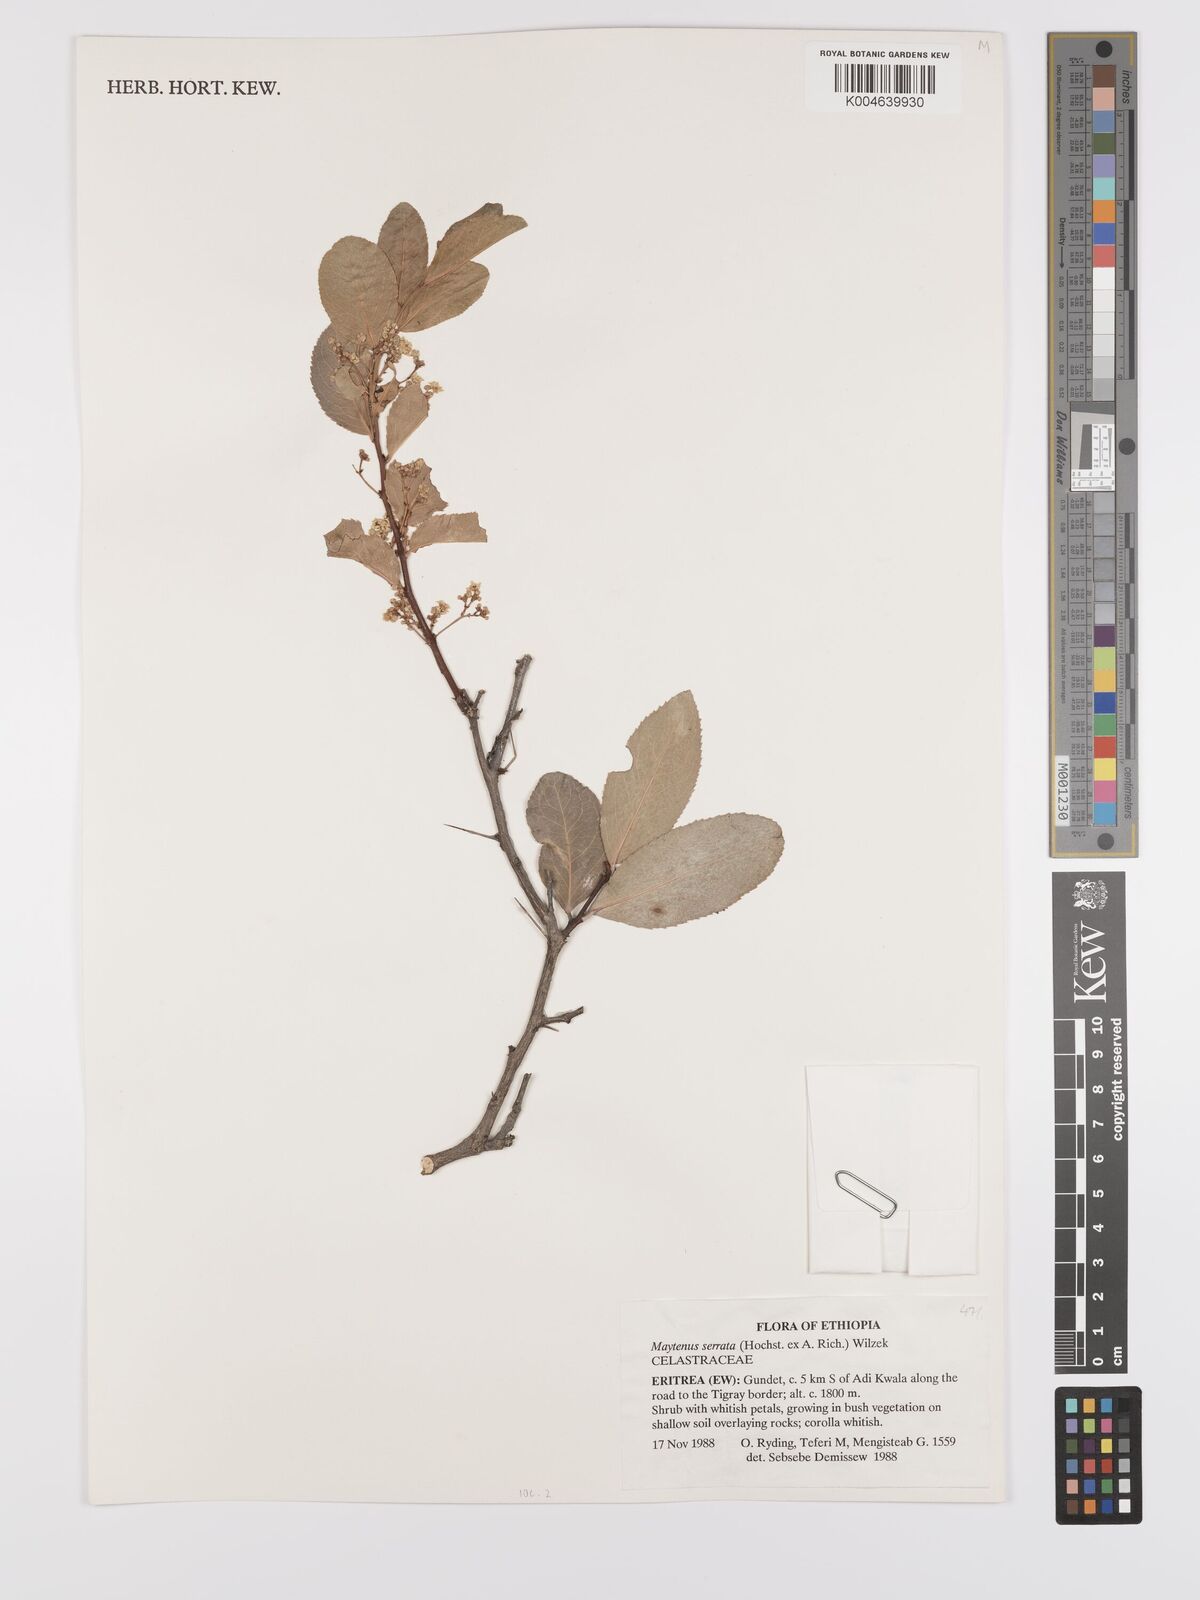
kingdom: Plantae
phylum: Tracheophyta
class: Magnoliopsida
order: Celastrales
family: Celastraceae
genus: Gymnosporia
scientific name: Gymnosporia serrata
